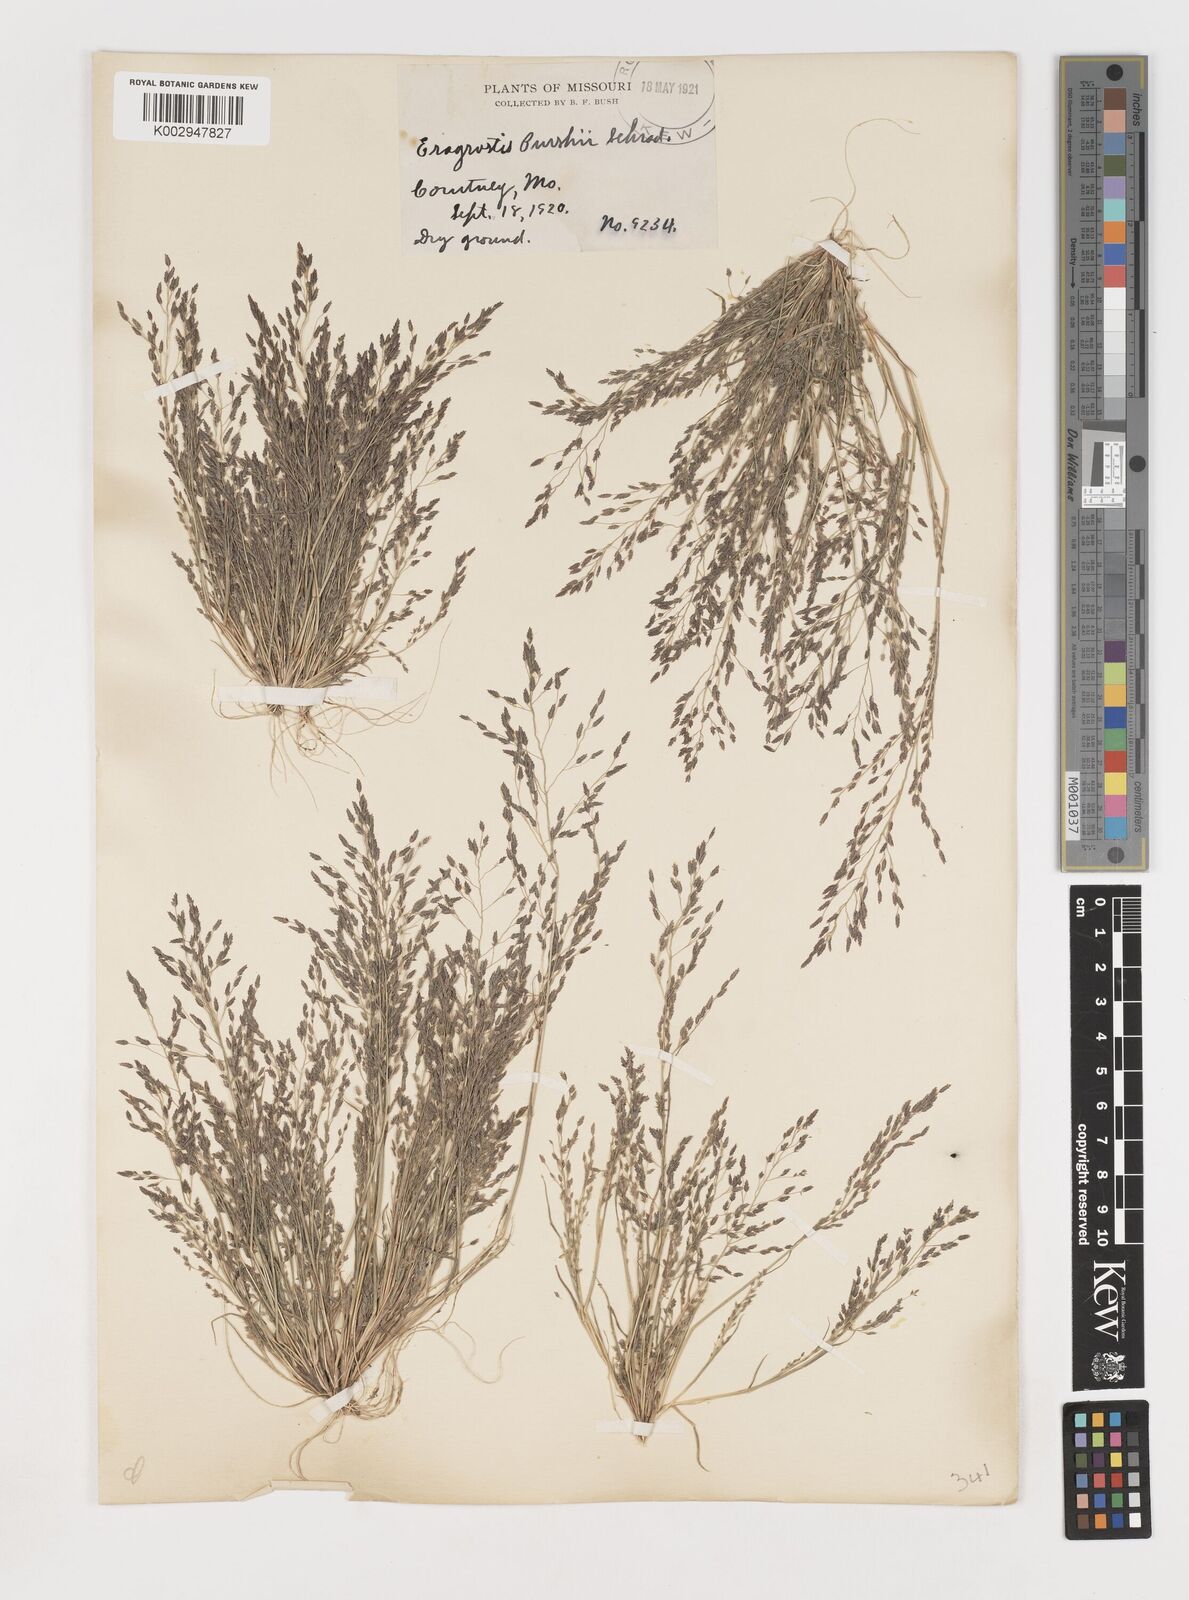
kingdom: Plantae
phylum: Tracheophyta
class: Liliopsida
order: Poales
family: Poaceae
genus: Eragrostis
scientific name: Eragrostis pectinacea
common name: Tufted lovegrass
